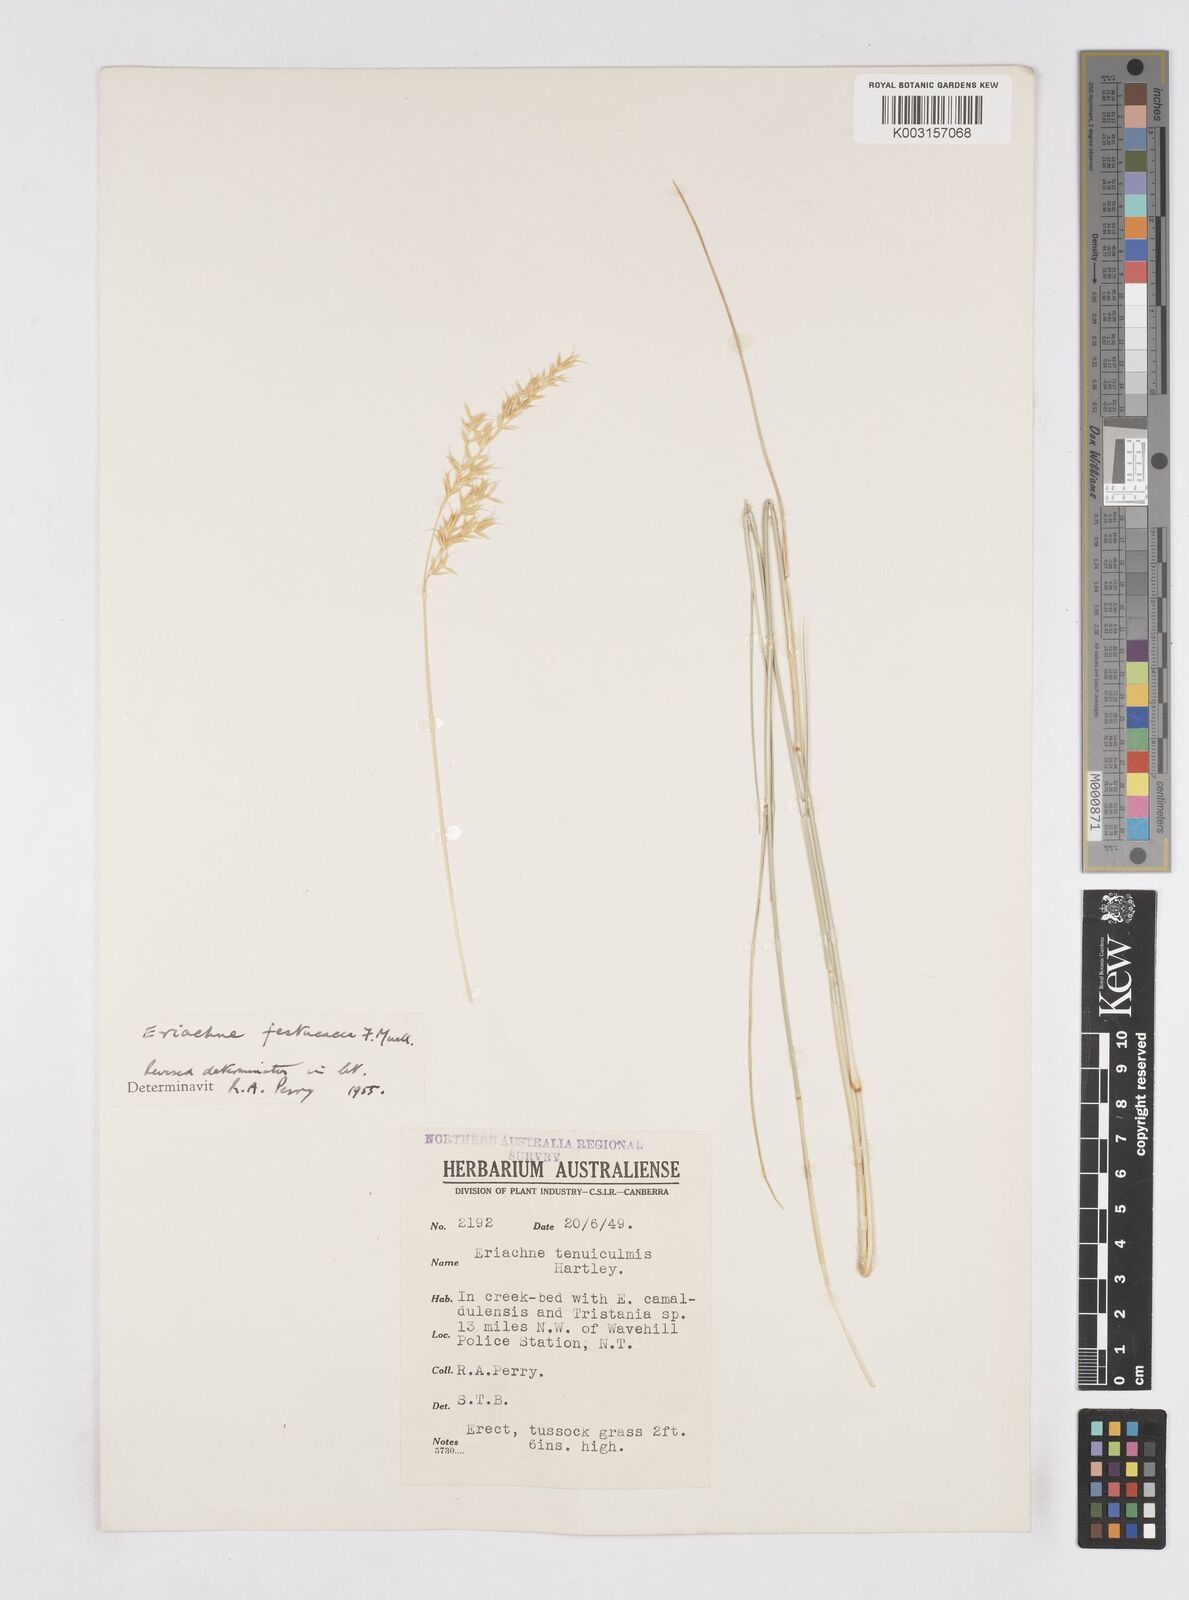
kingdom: Plantae
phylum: Tracheophyta
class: Liliopsida
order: Poales
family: Poaceae
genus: Eriachne
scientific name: Eriachne festucacea
